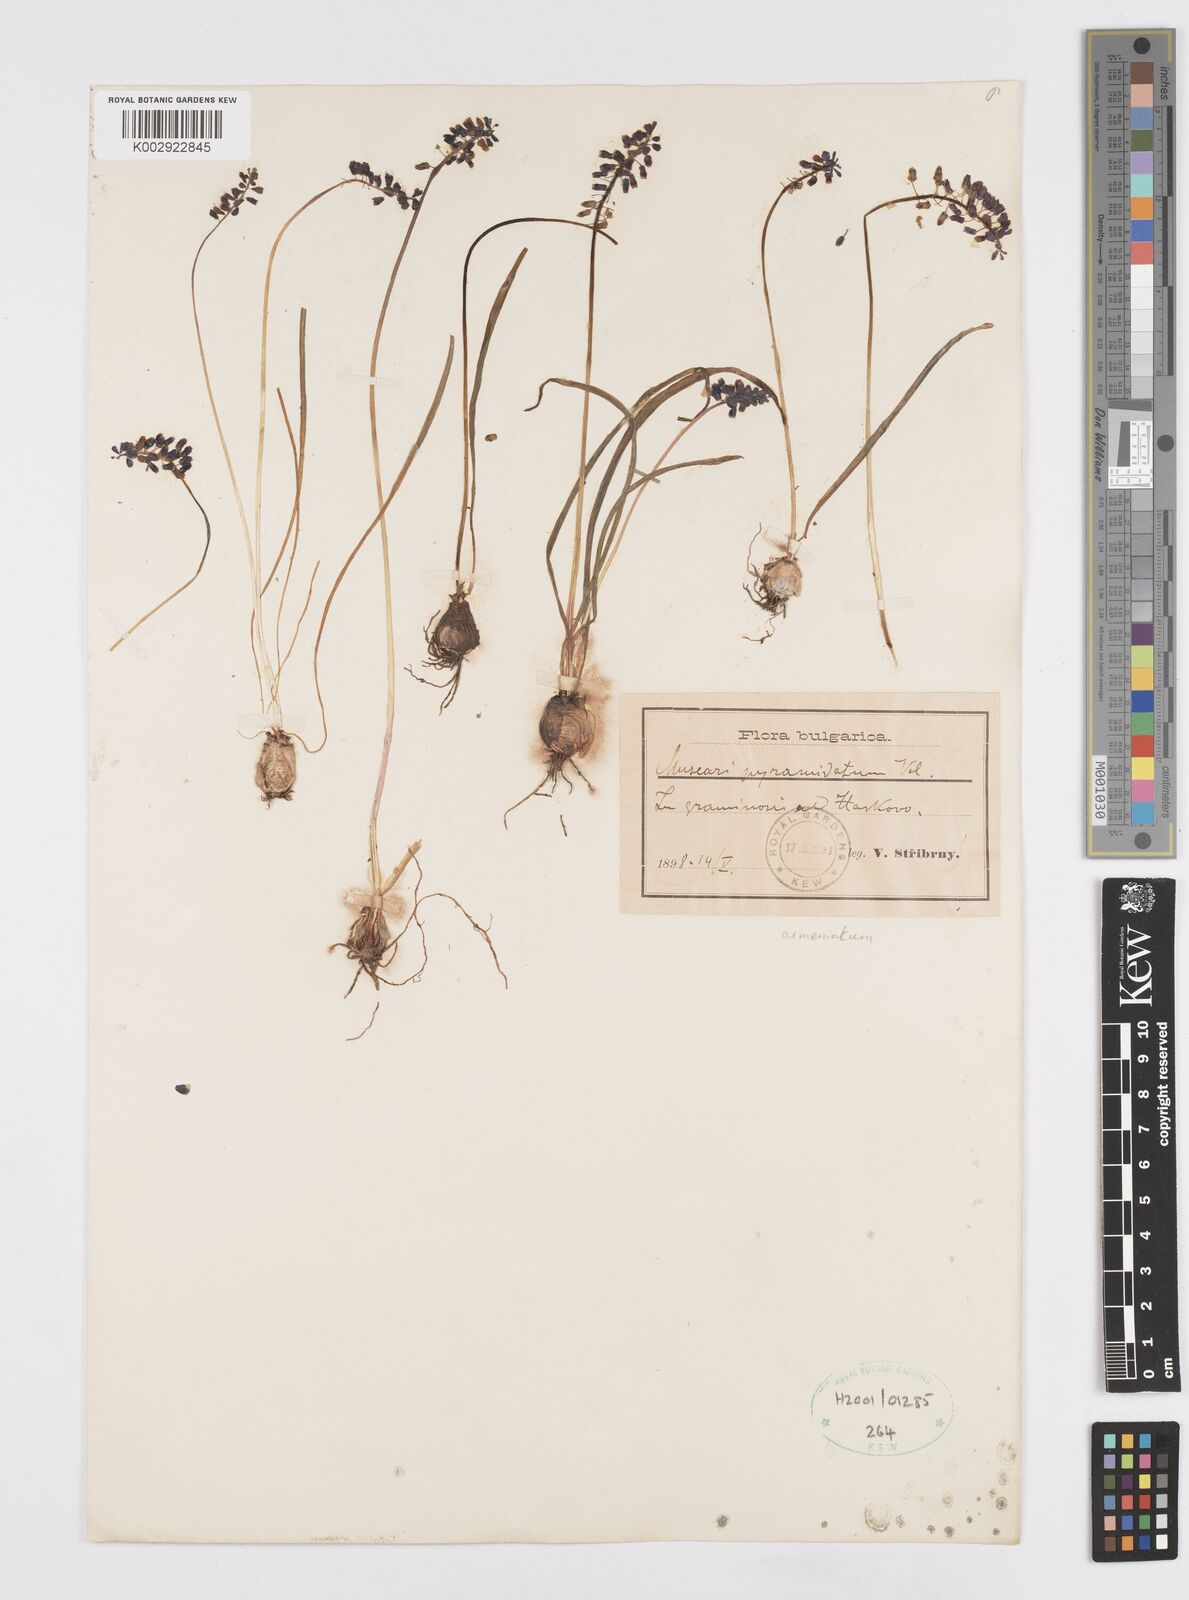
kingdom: Plantae
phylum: Tracheophyta
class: Liliopsida
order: Asparagales
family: Asparagaceae
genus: Muscari
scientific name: Muscari
